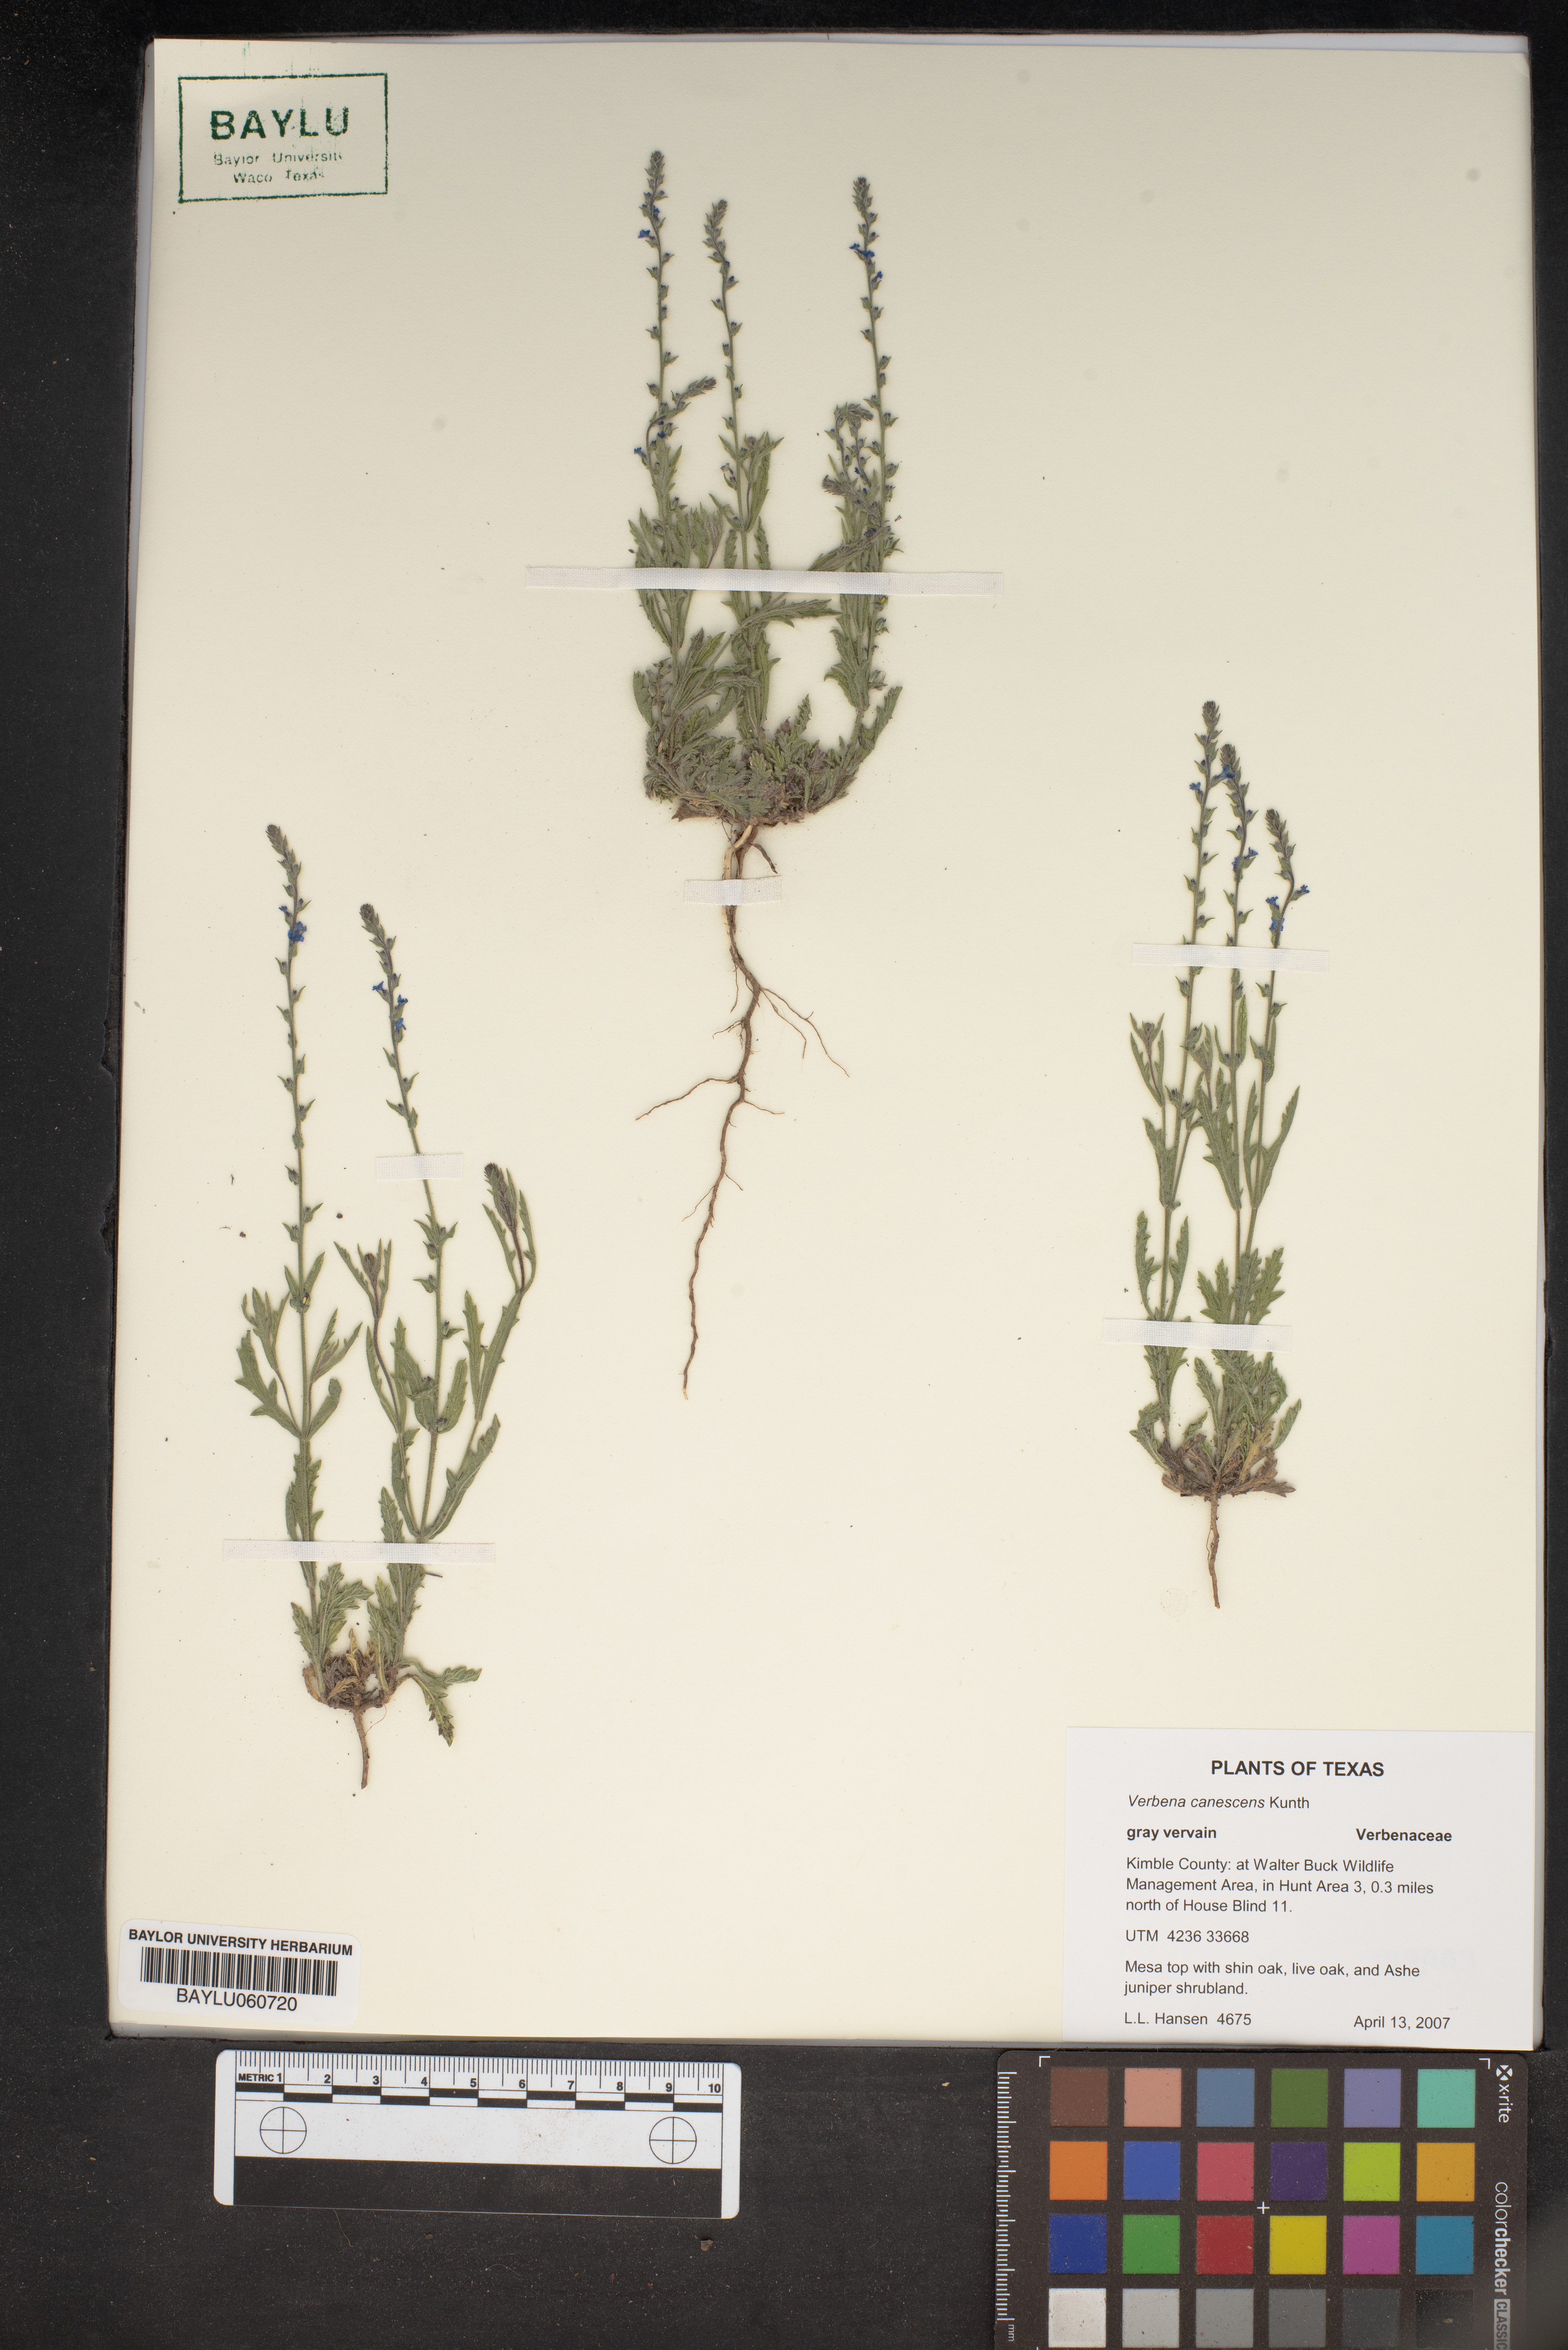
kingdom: Plantae
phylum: Tracheophyta
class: Magnoliopsida
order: Lamiales
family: Verbenaceae
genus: Verbena
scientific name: Verbena canescens
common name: Gray vervain
